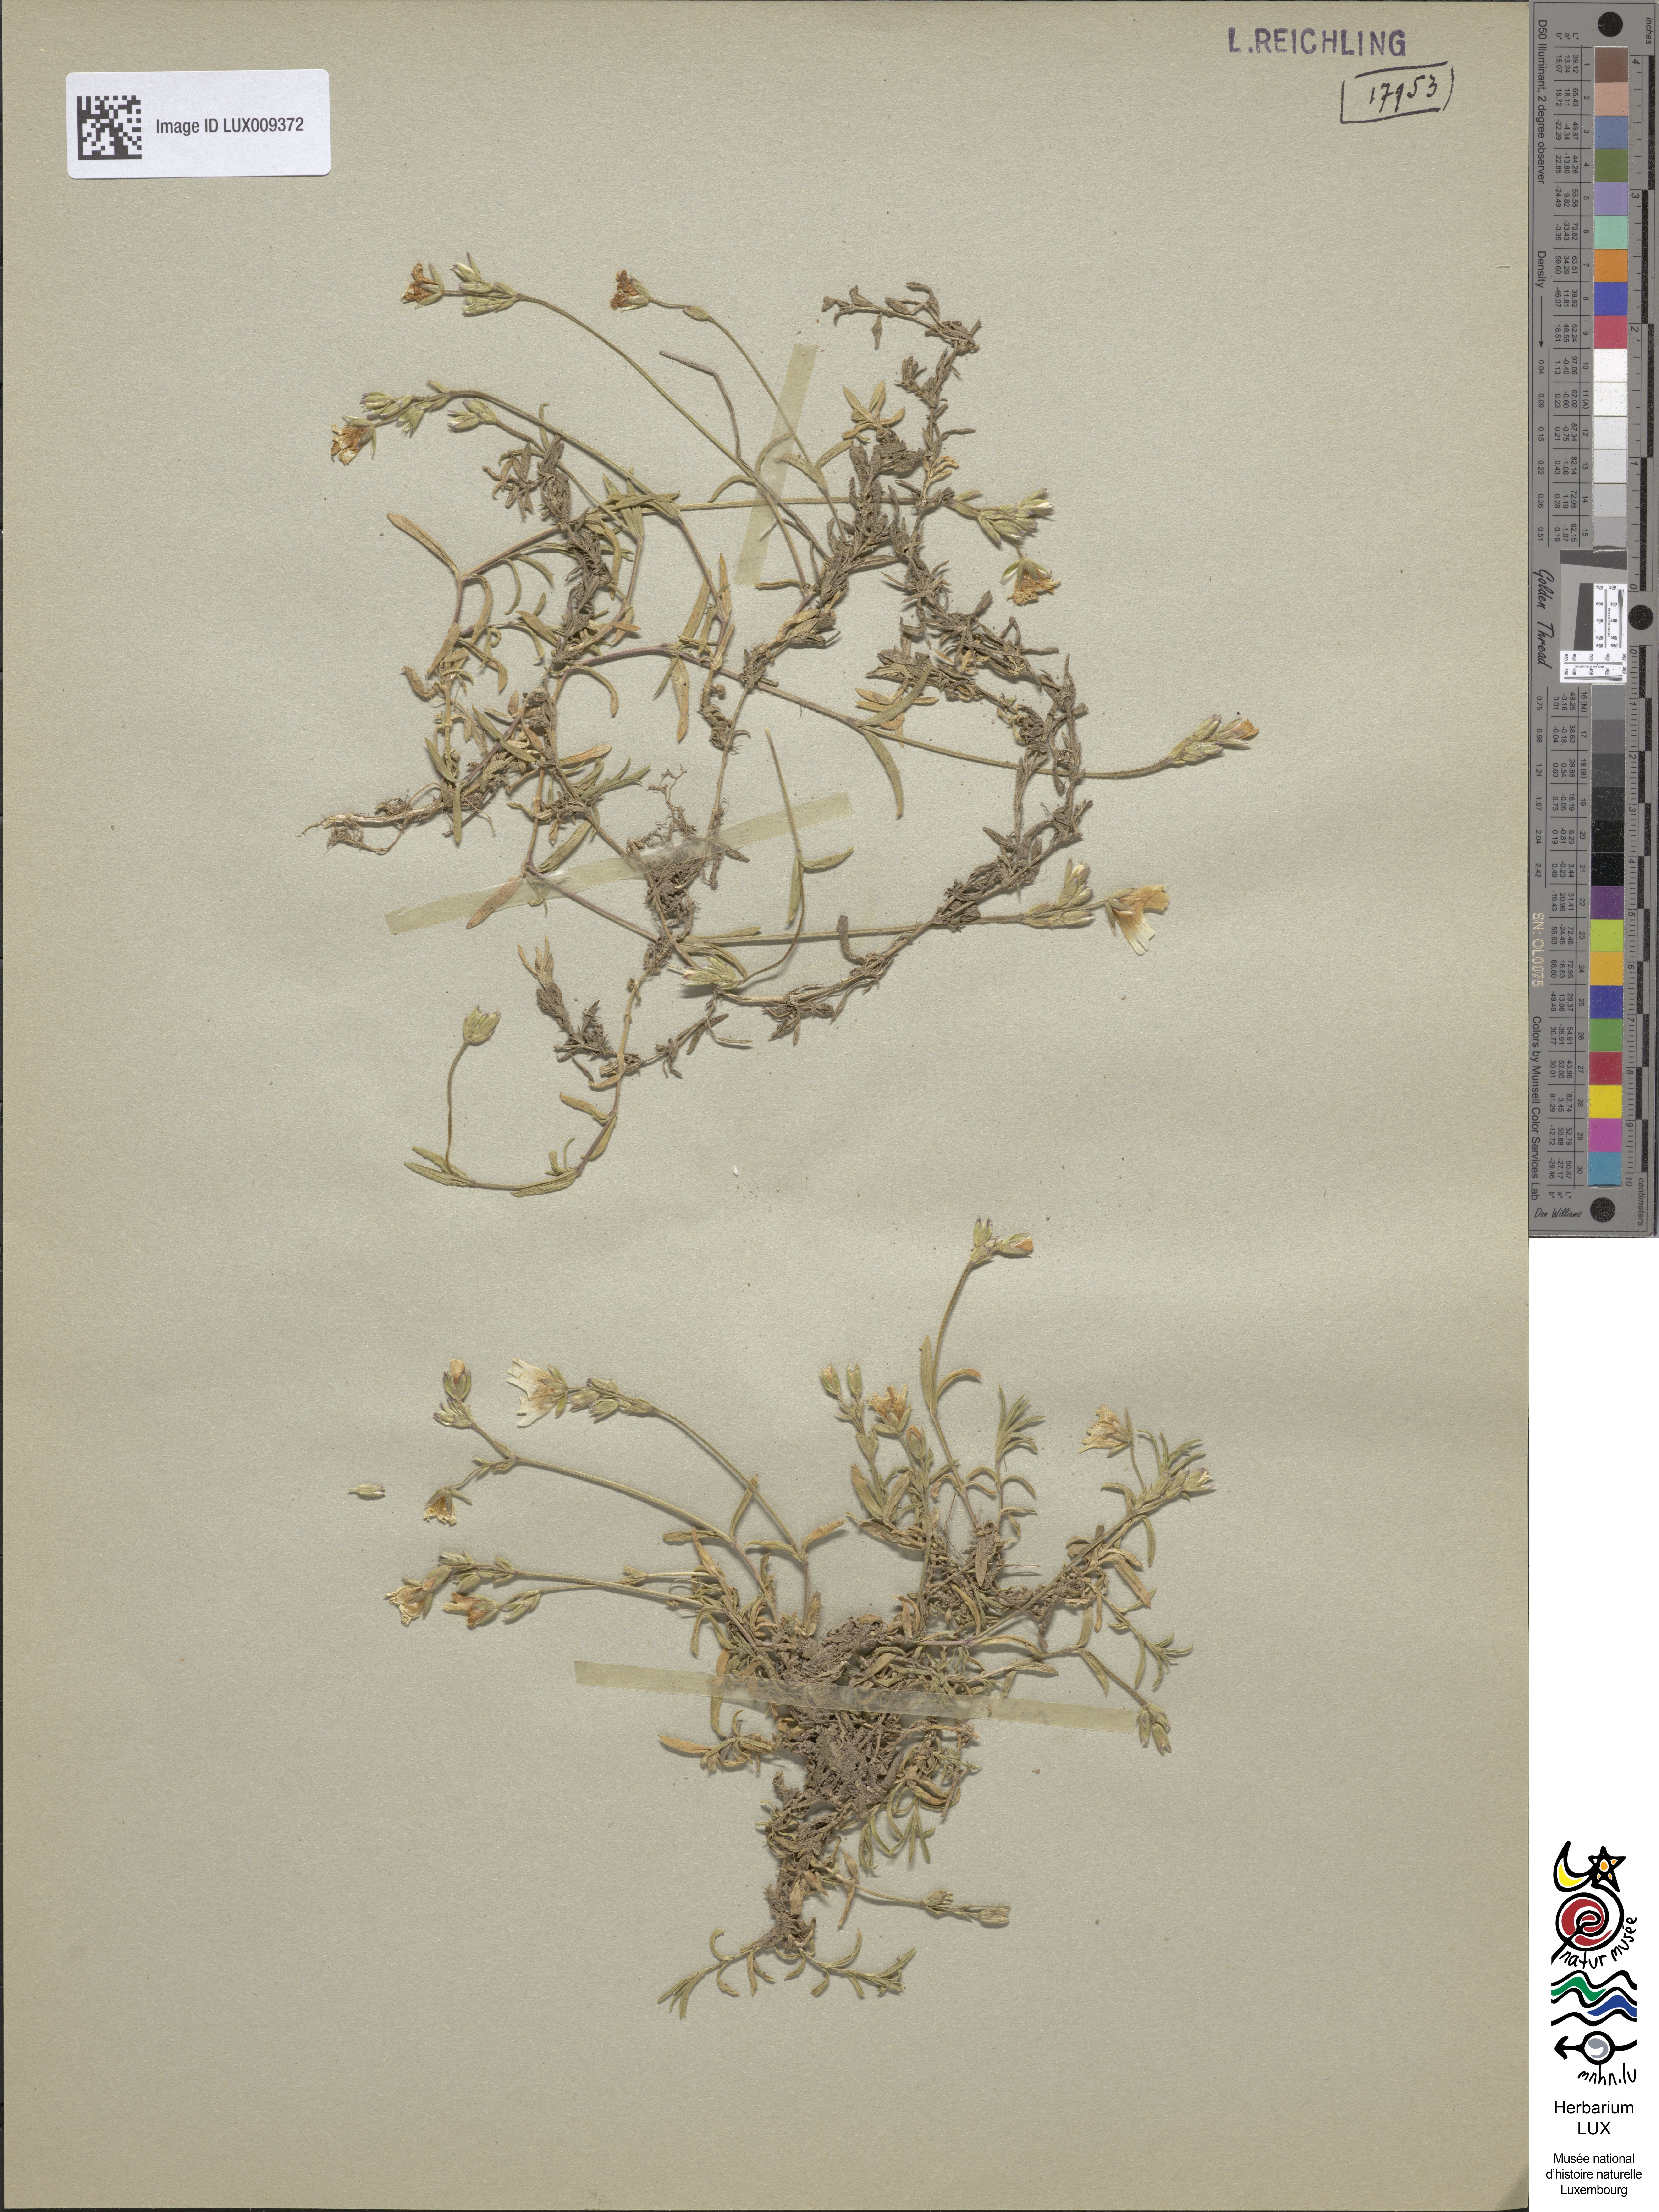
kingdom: Plantae
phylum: Tracheophyta
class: Magnoliopsida
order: Caryophyllales
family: Caryophyllaceae
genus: Cerastium
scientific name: Cerastium arvense
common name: Field mouse-ear
